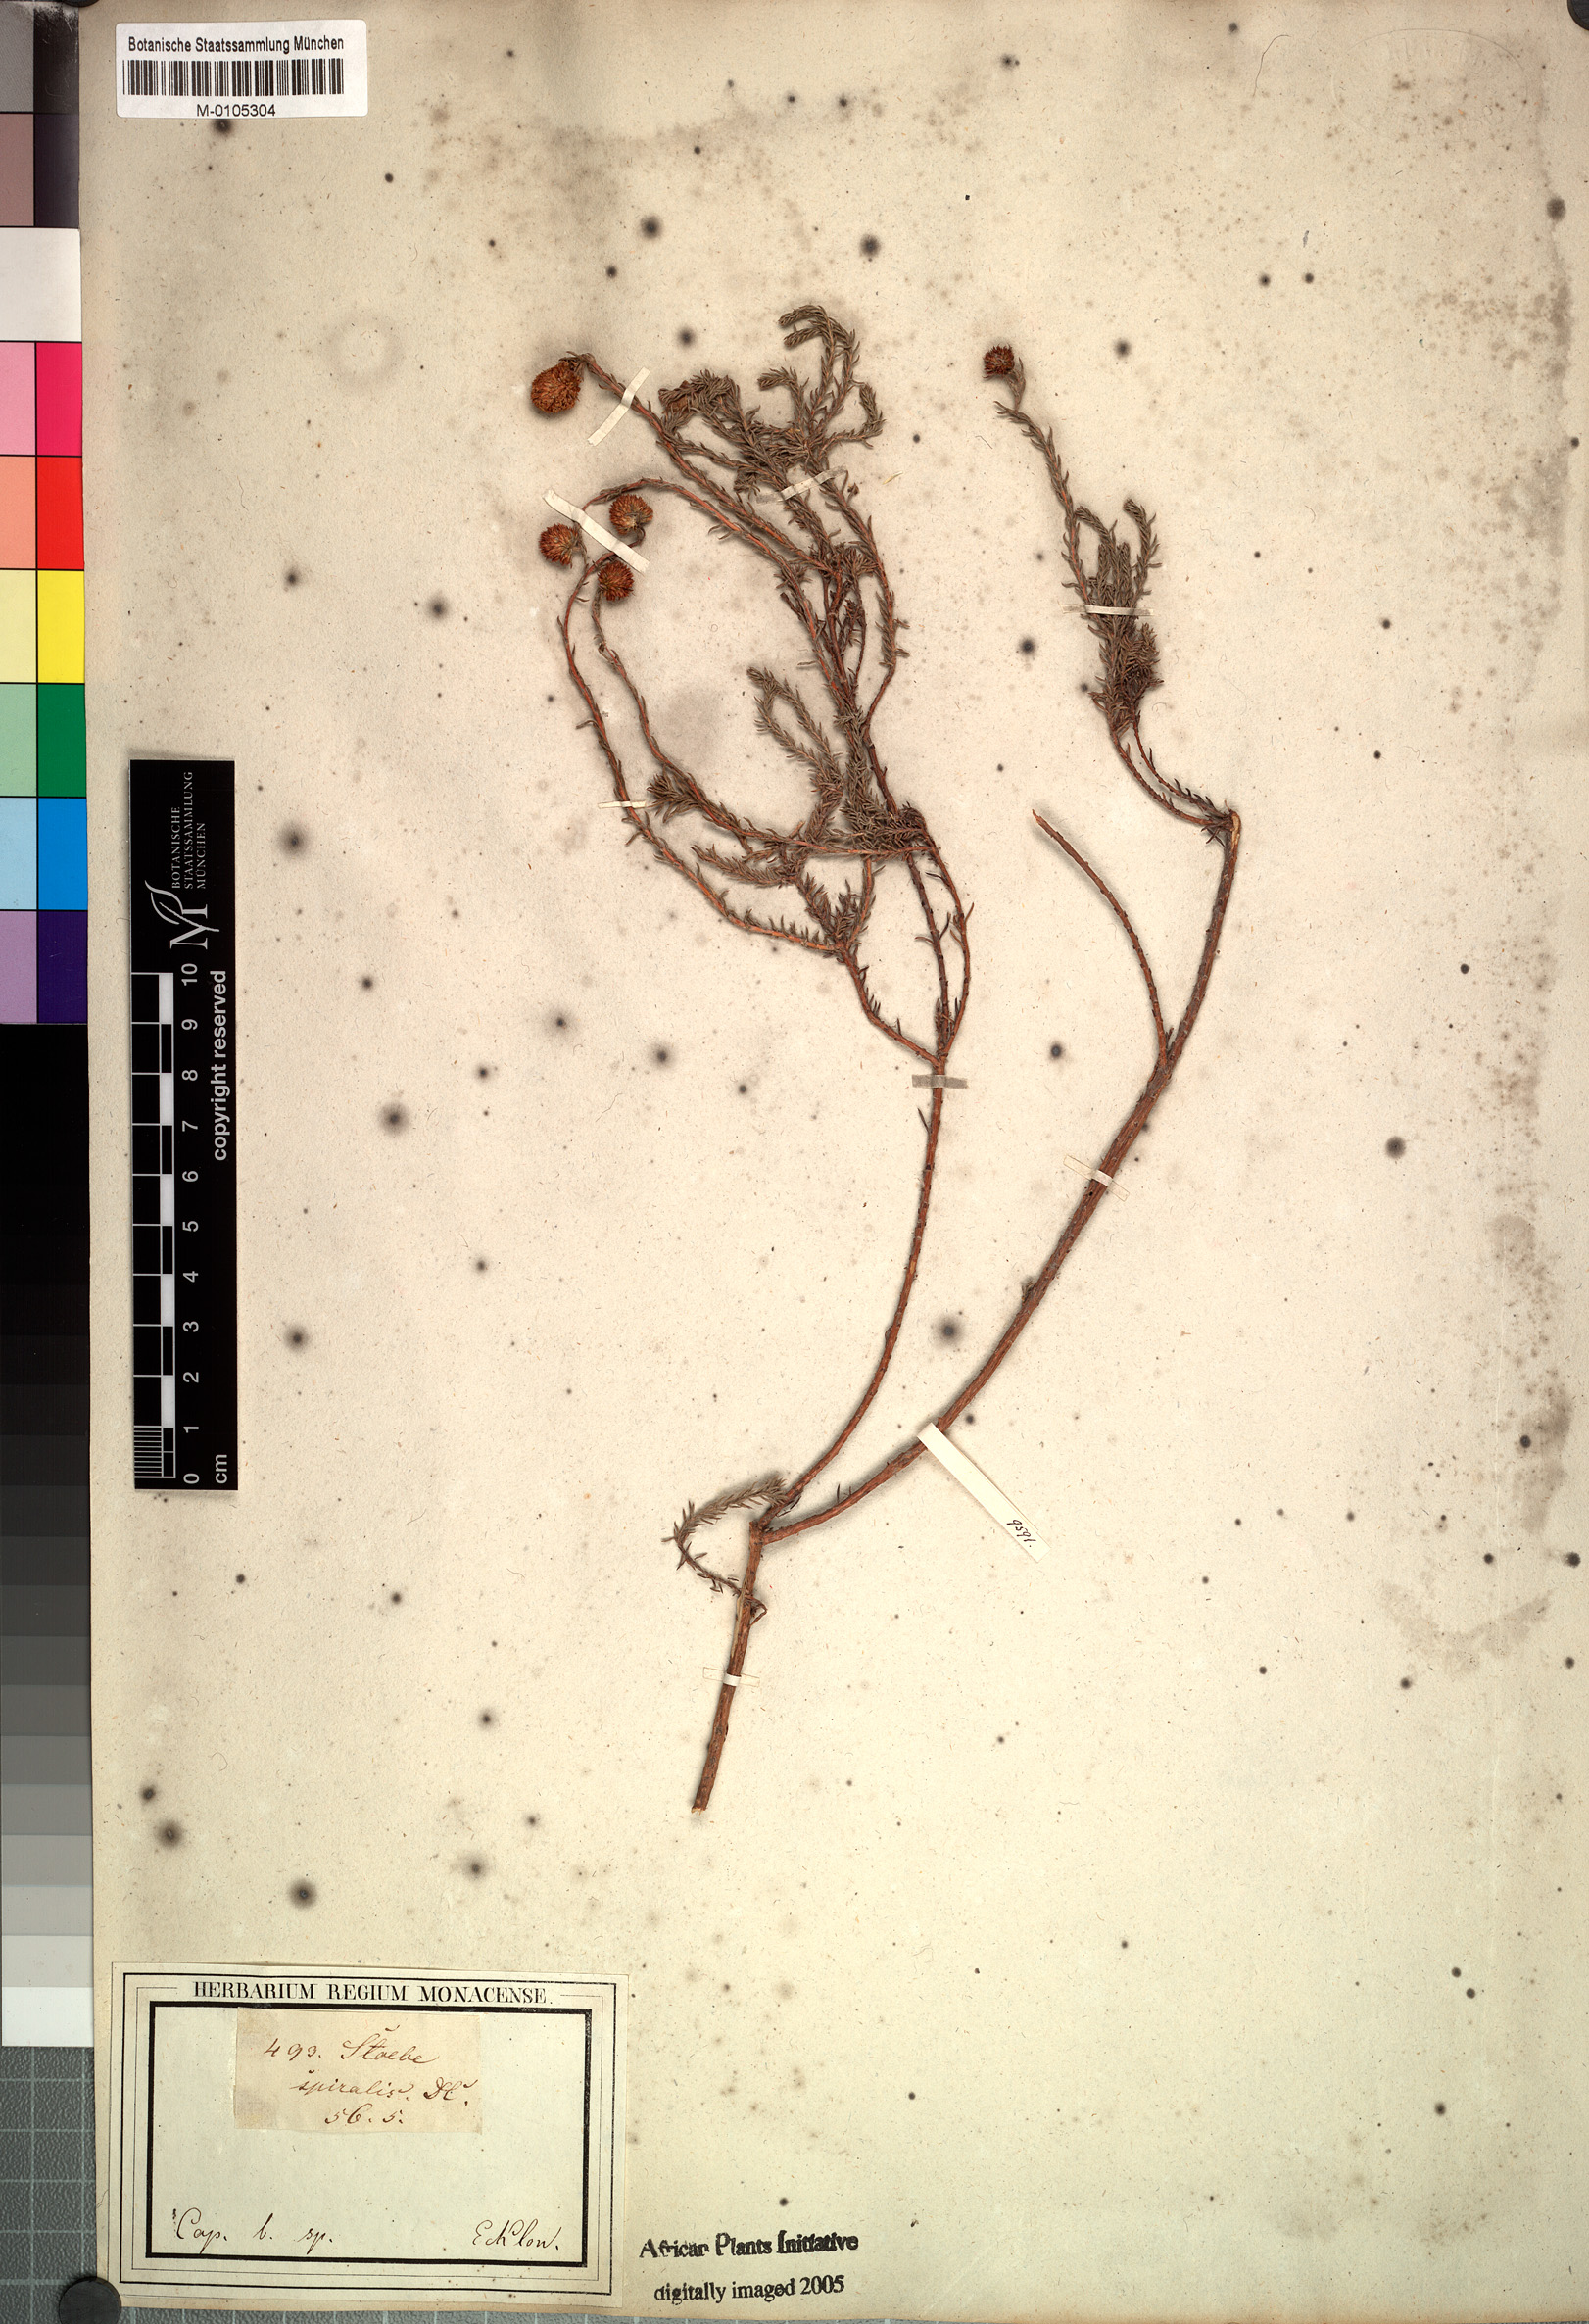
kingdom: Plantae
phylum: Tracheophyta
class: Magnoliopsida
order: Asterales
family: Asteraceae
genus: Seriphium
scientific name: Seriphium spirale
